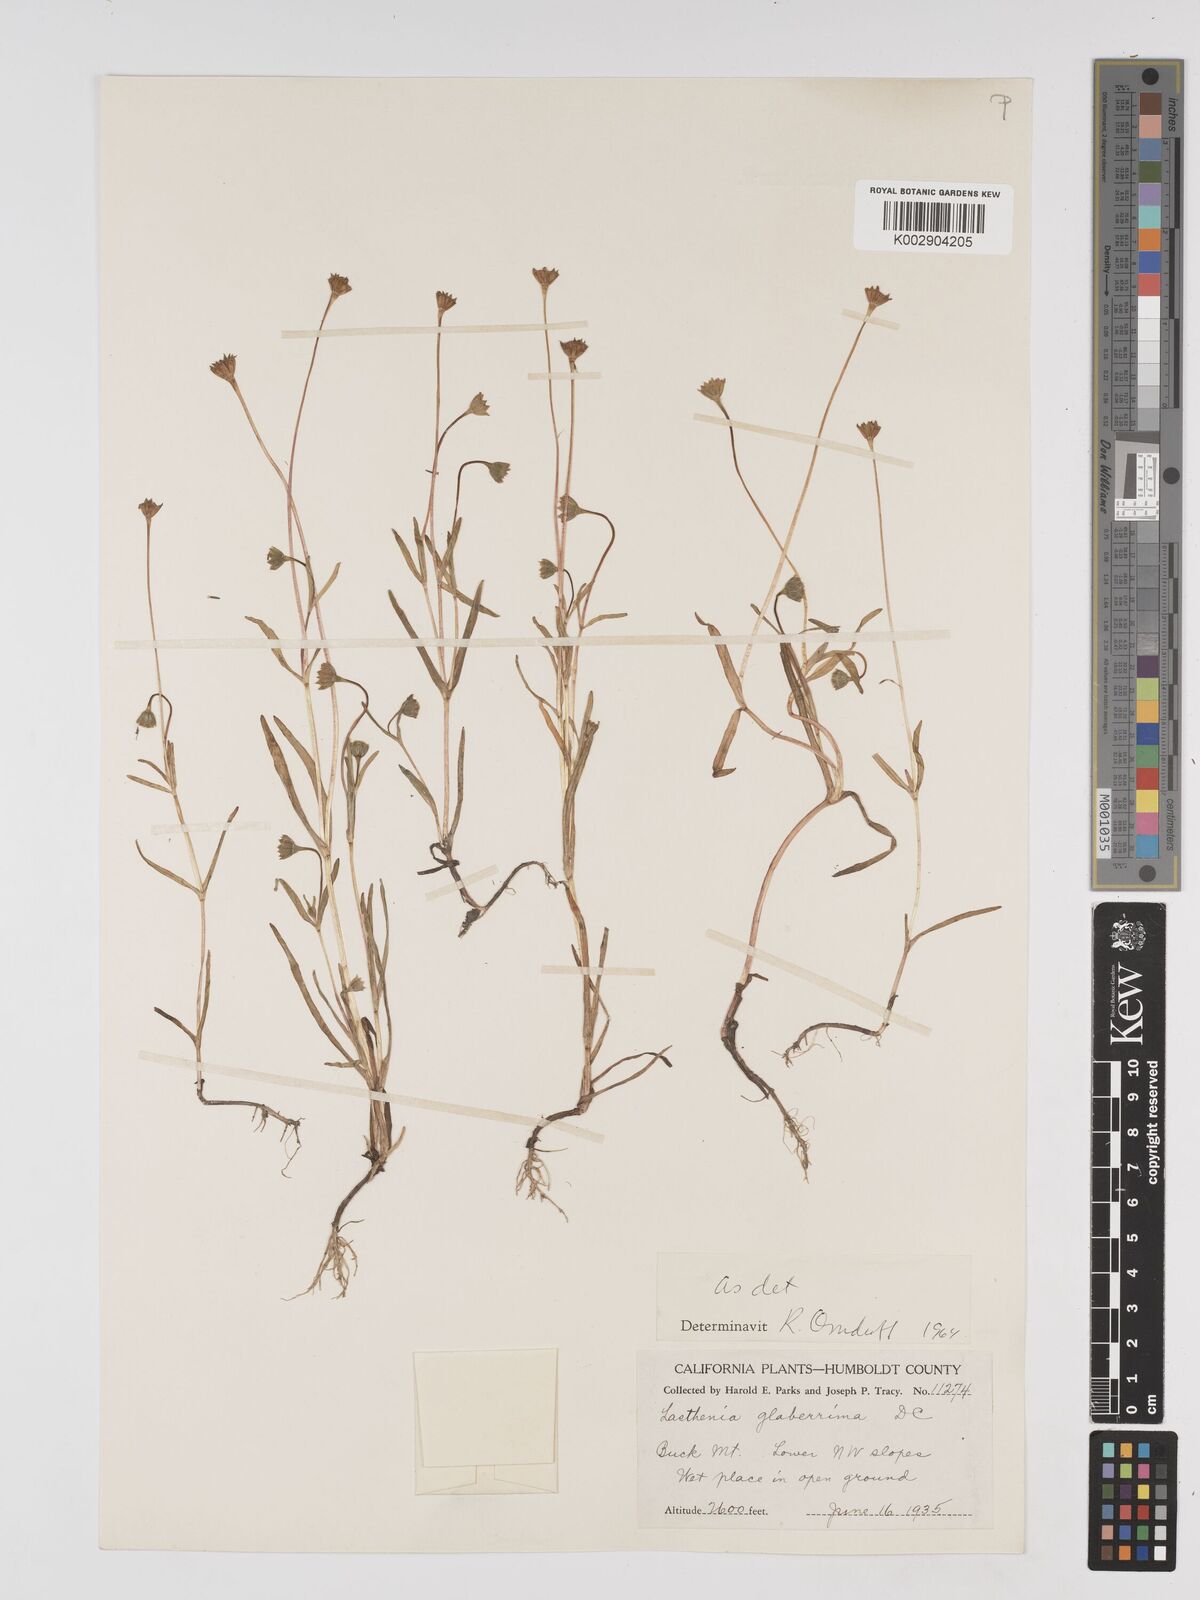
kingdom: Plantae
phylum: Tracheophyta
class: Magnoliopsida
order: Asterales
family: Asteraceae
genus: Lasthenia
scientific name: Lasthenia glaberrima
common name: Smooth goldfields
